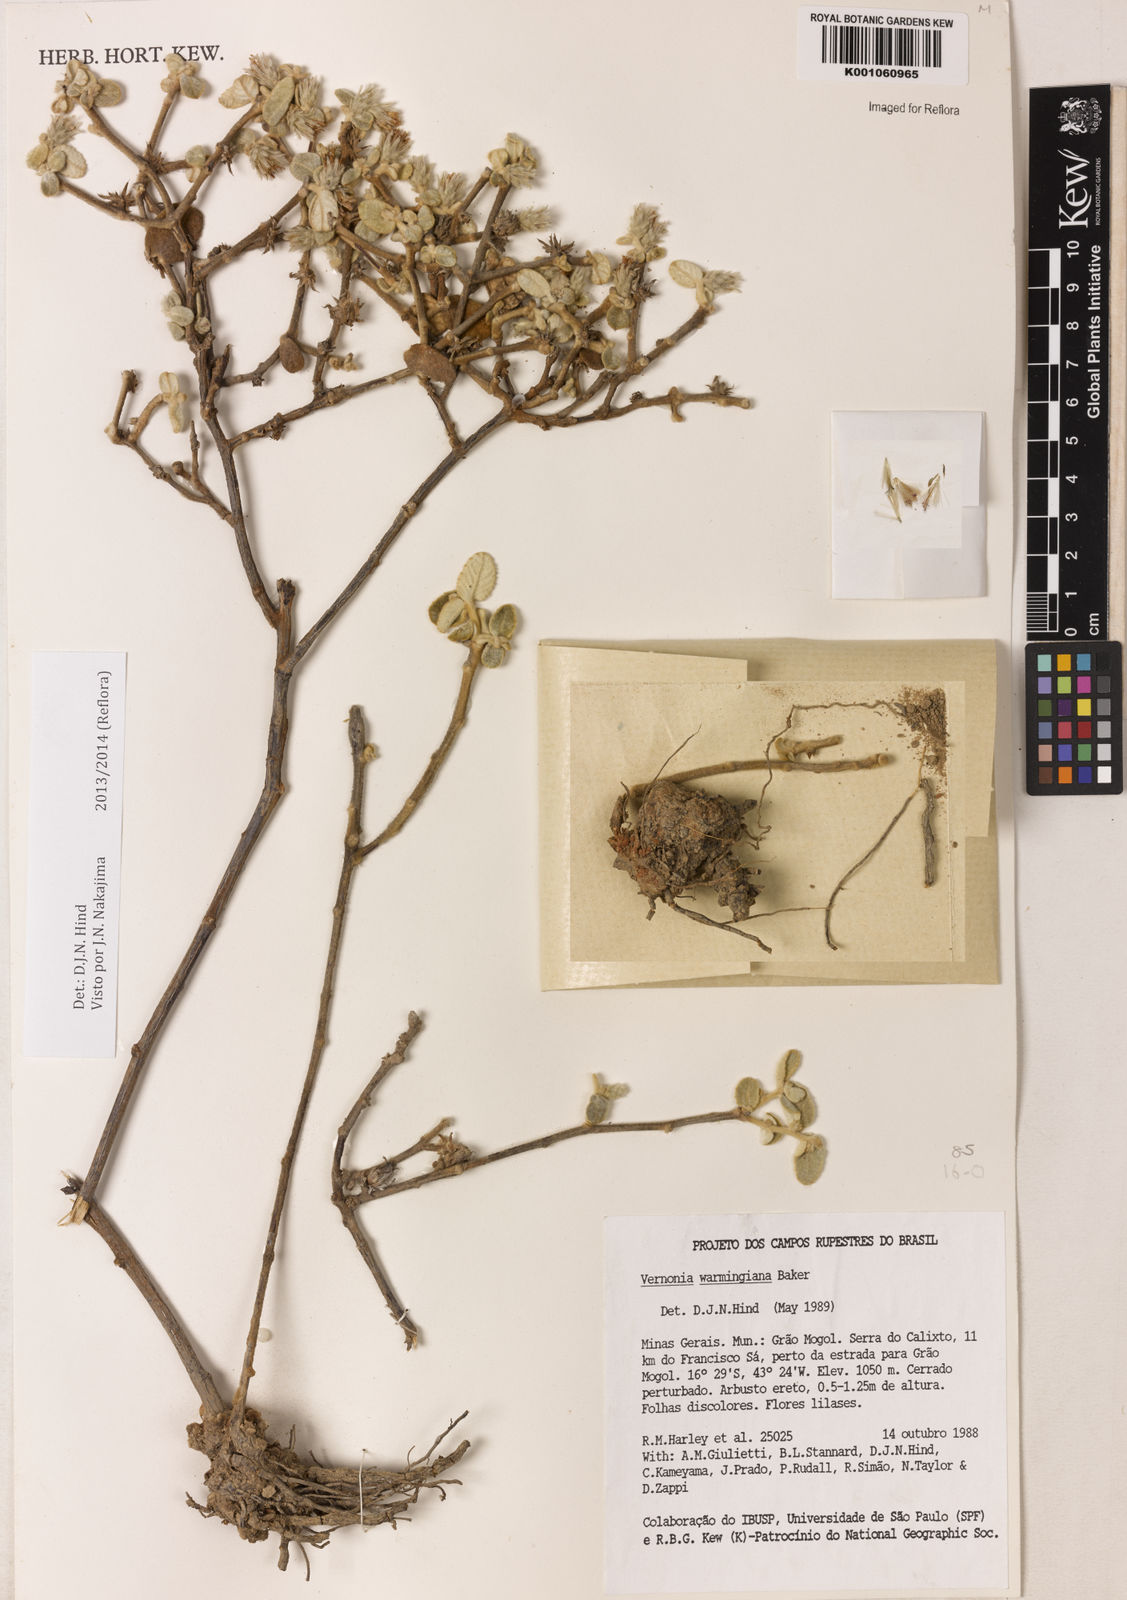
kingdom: Plantae
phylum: Tracheophyta
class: Magnoliopsida
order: Asterales
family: Asteraceae
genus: Lessingianthus
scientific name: Lessingianthus warmingianus
